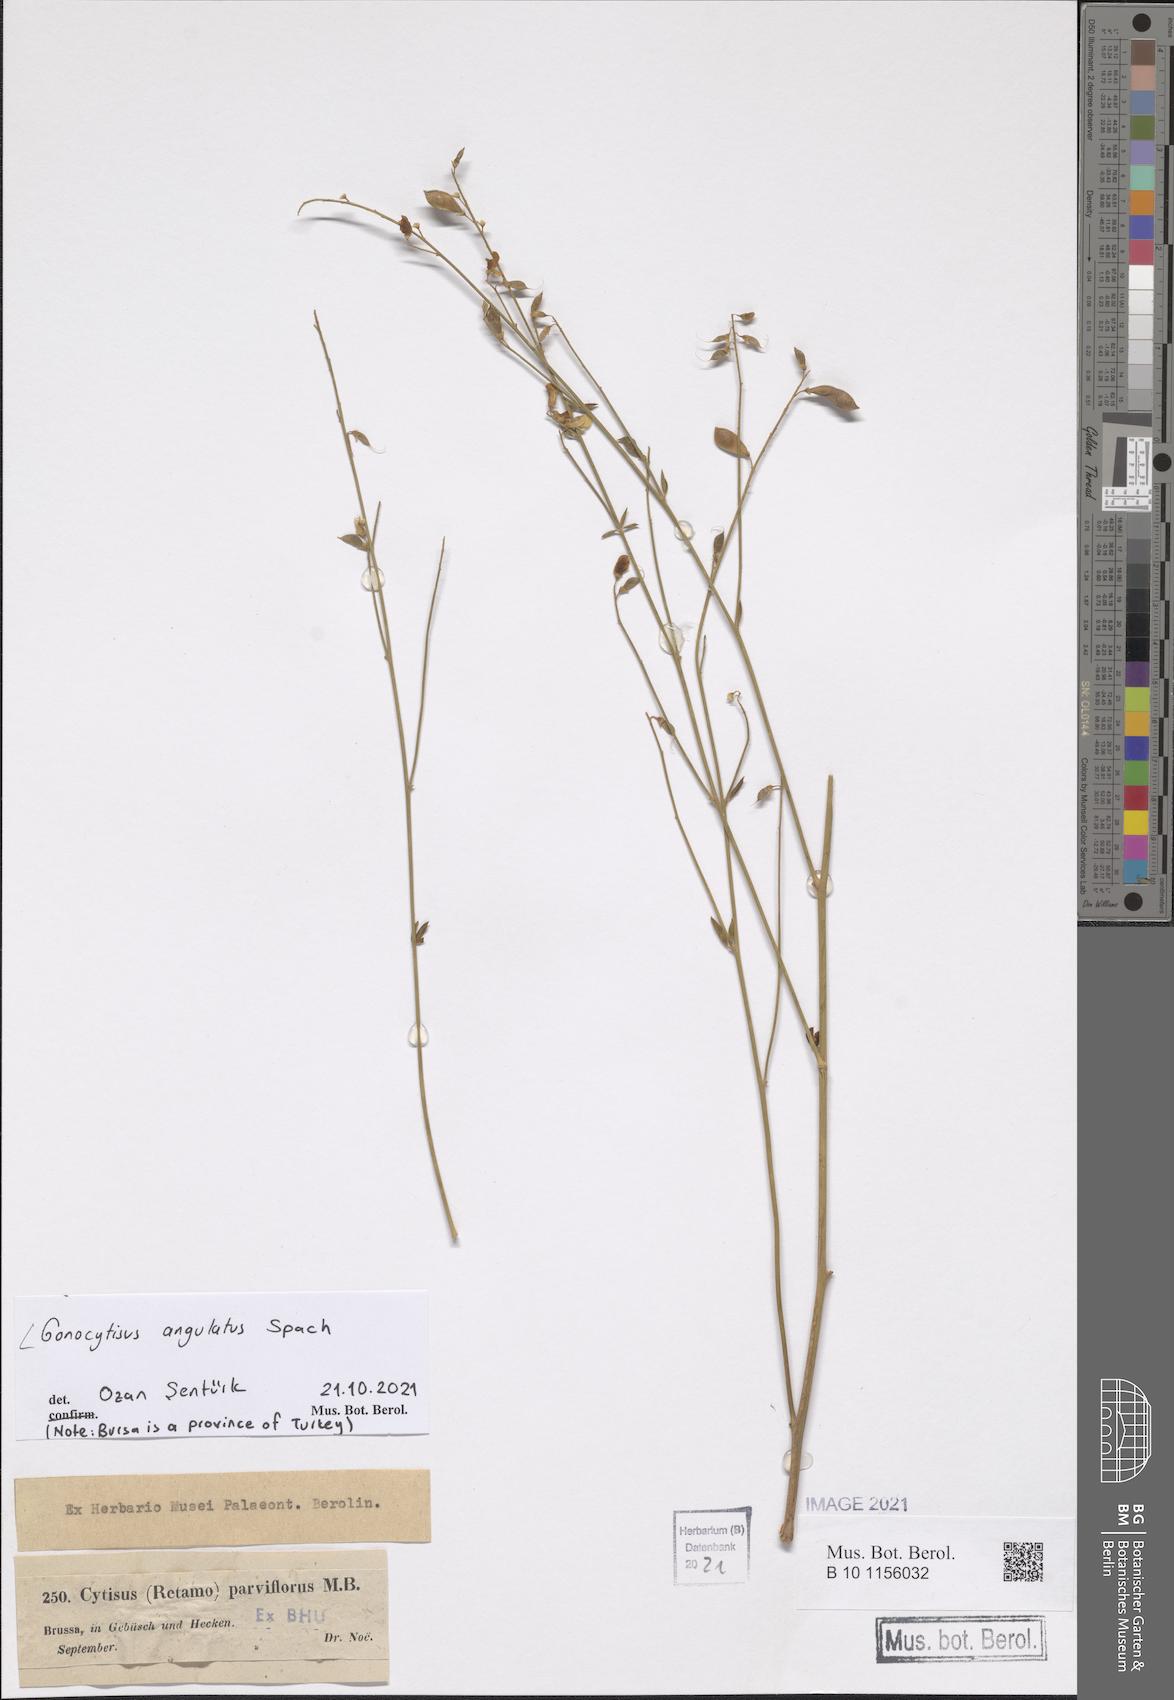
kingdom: Plantae
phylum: Tracheophyta
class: Magnoliopsida
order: Fabales
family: Fabaceae
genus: Gonocytisus
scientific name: Gonocytisus angulatus
